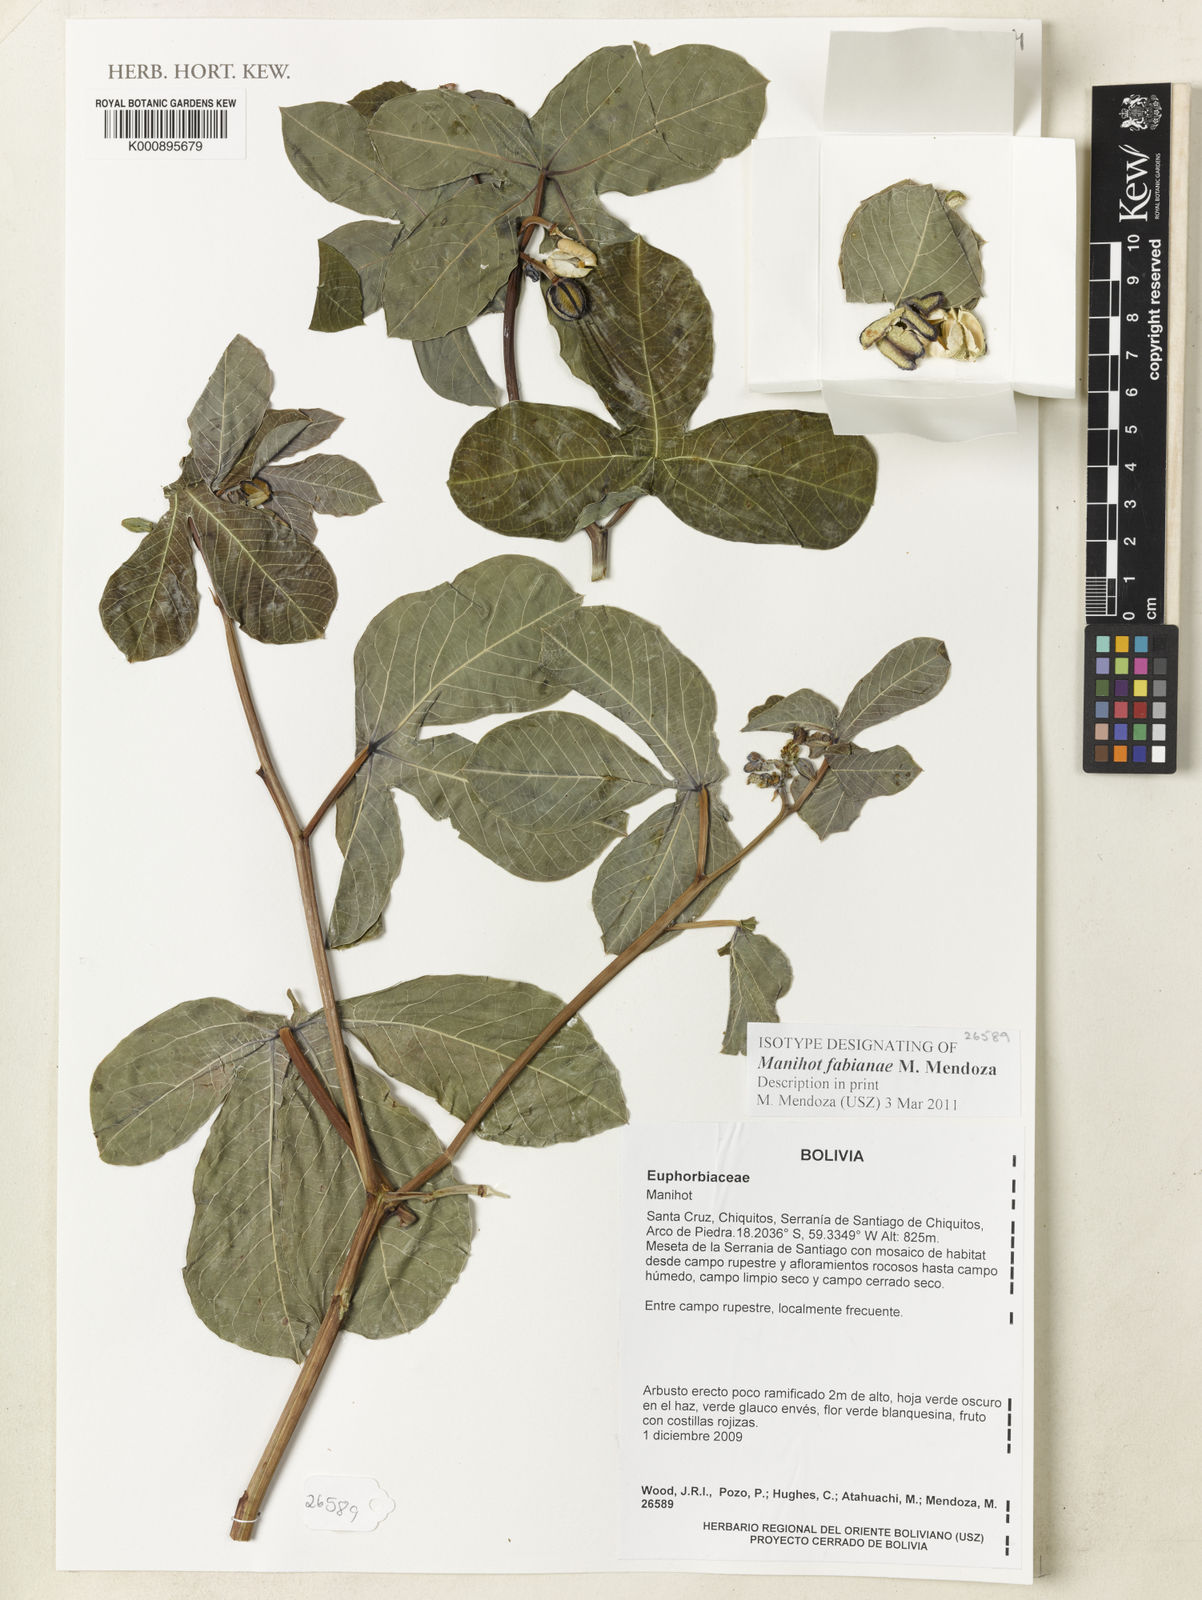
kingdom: Plantae
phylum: Tracheophyta
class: Magnoliopsida
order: Malpighiales
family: Euphorbiaceae
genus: Manihot
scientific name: Manihot fabianae
